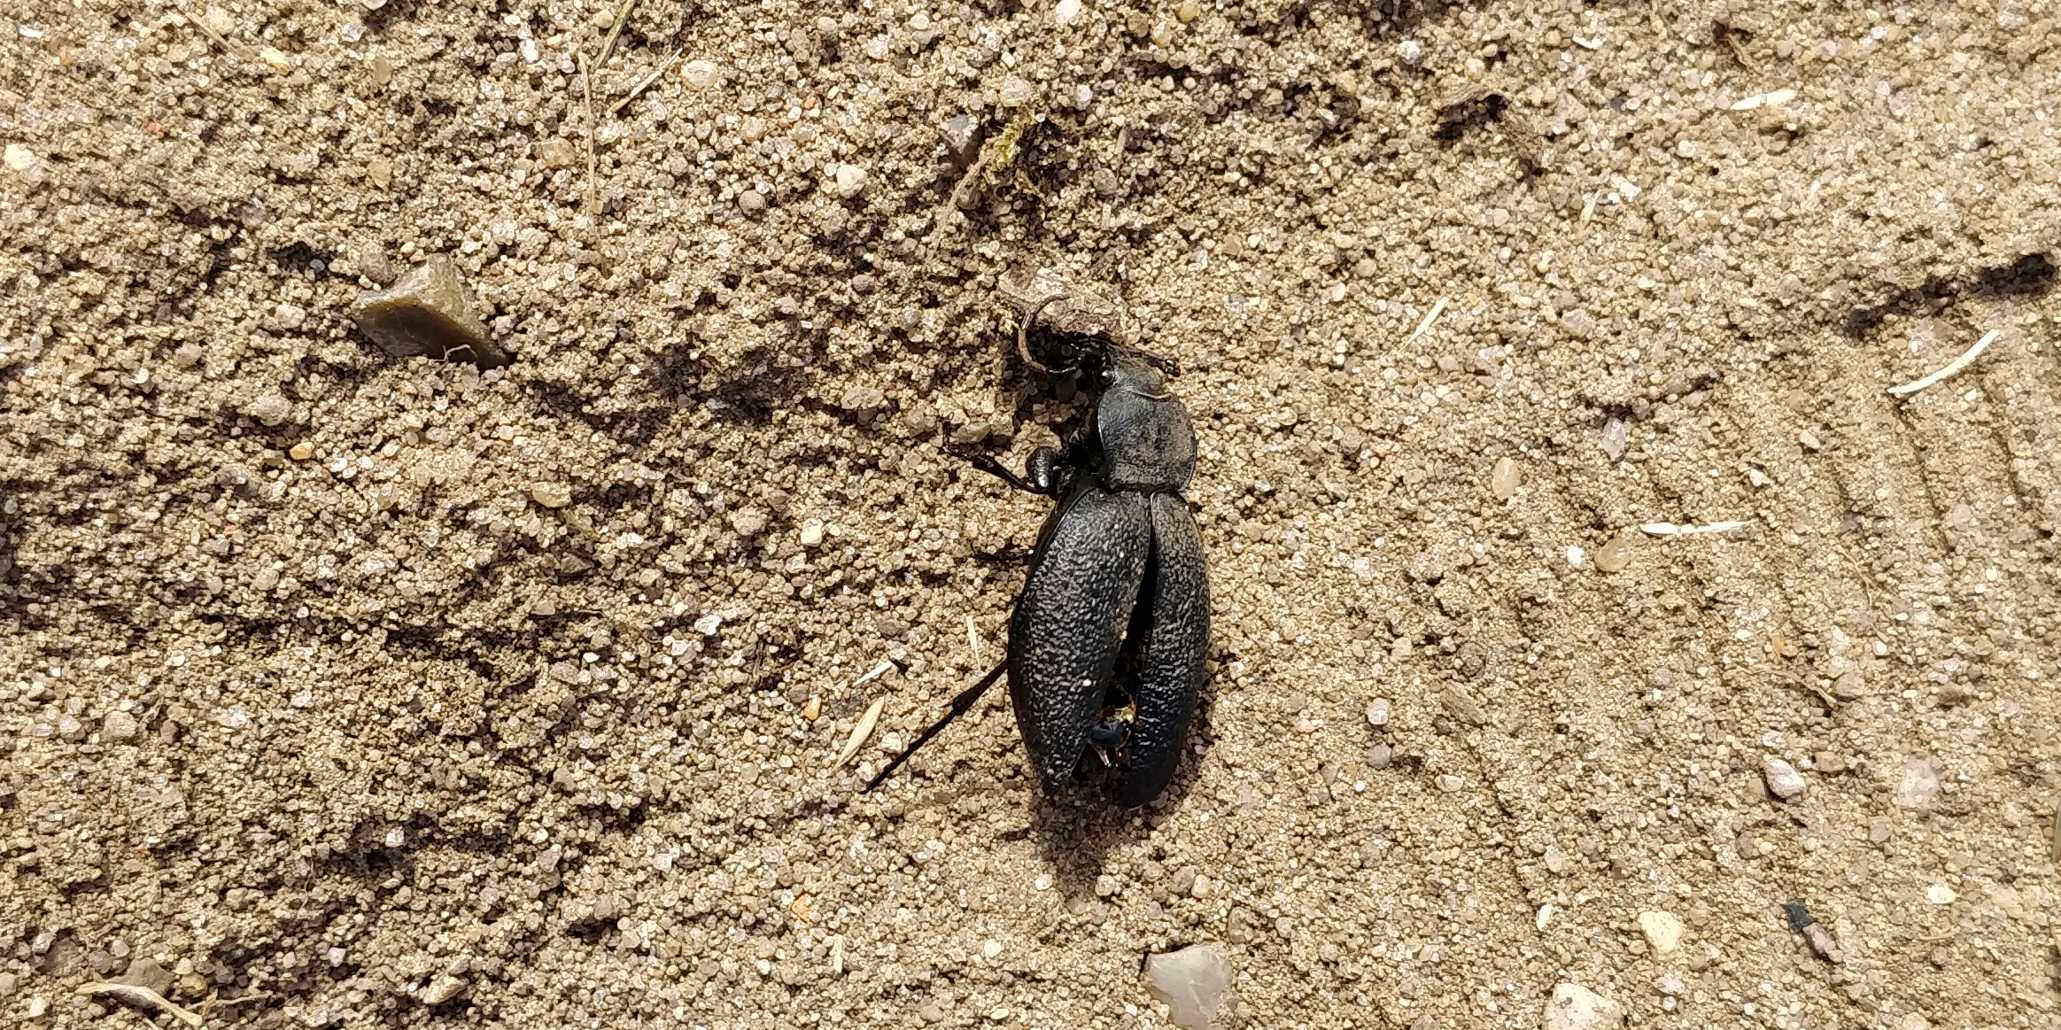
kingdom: Animalia
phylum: Arthropoda
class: Insecta
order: Coleoptera
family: Carabidae
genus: Carabus
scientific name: Carabus coriaceus
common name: Læderløber
